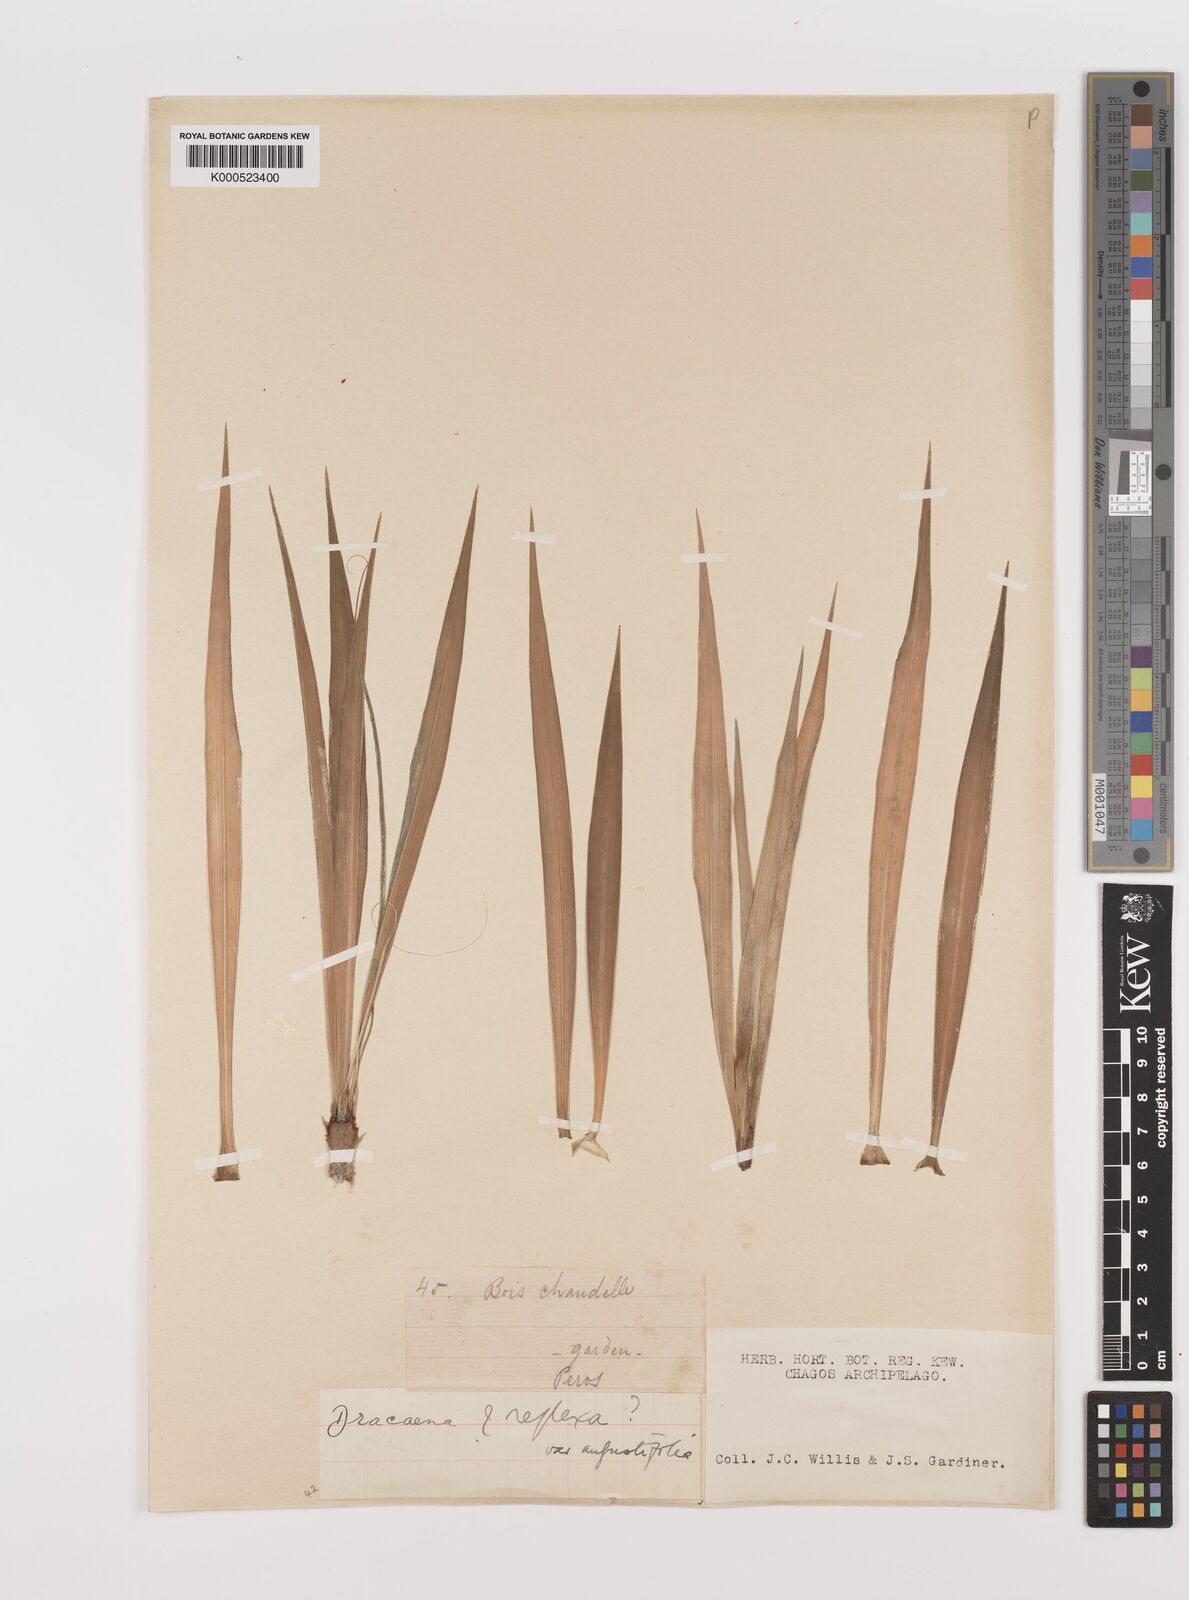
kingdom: Plantae
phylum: Tracheophyta
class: Liliopsida
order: Asparagales
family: Asparagaceae
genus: Dracaena
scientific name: Dracaena reflexa
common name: Song-of-india
